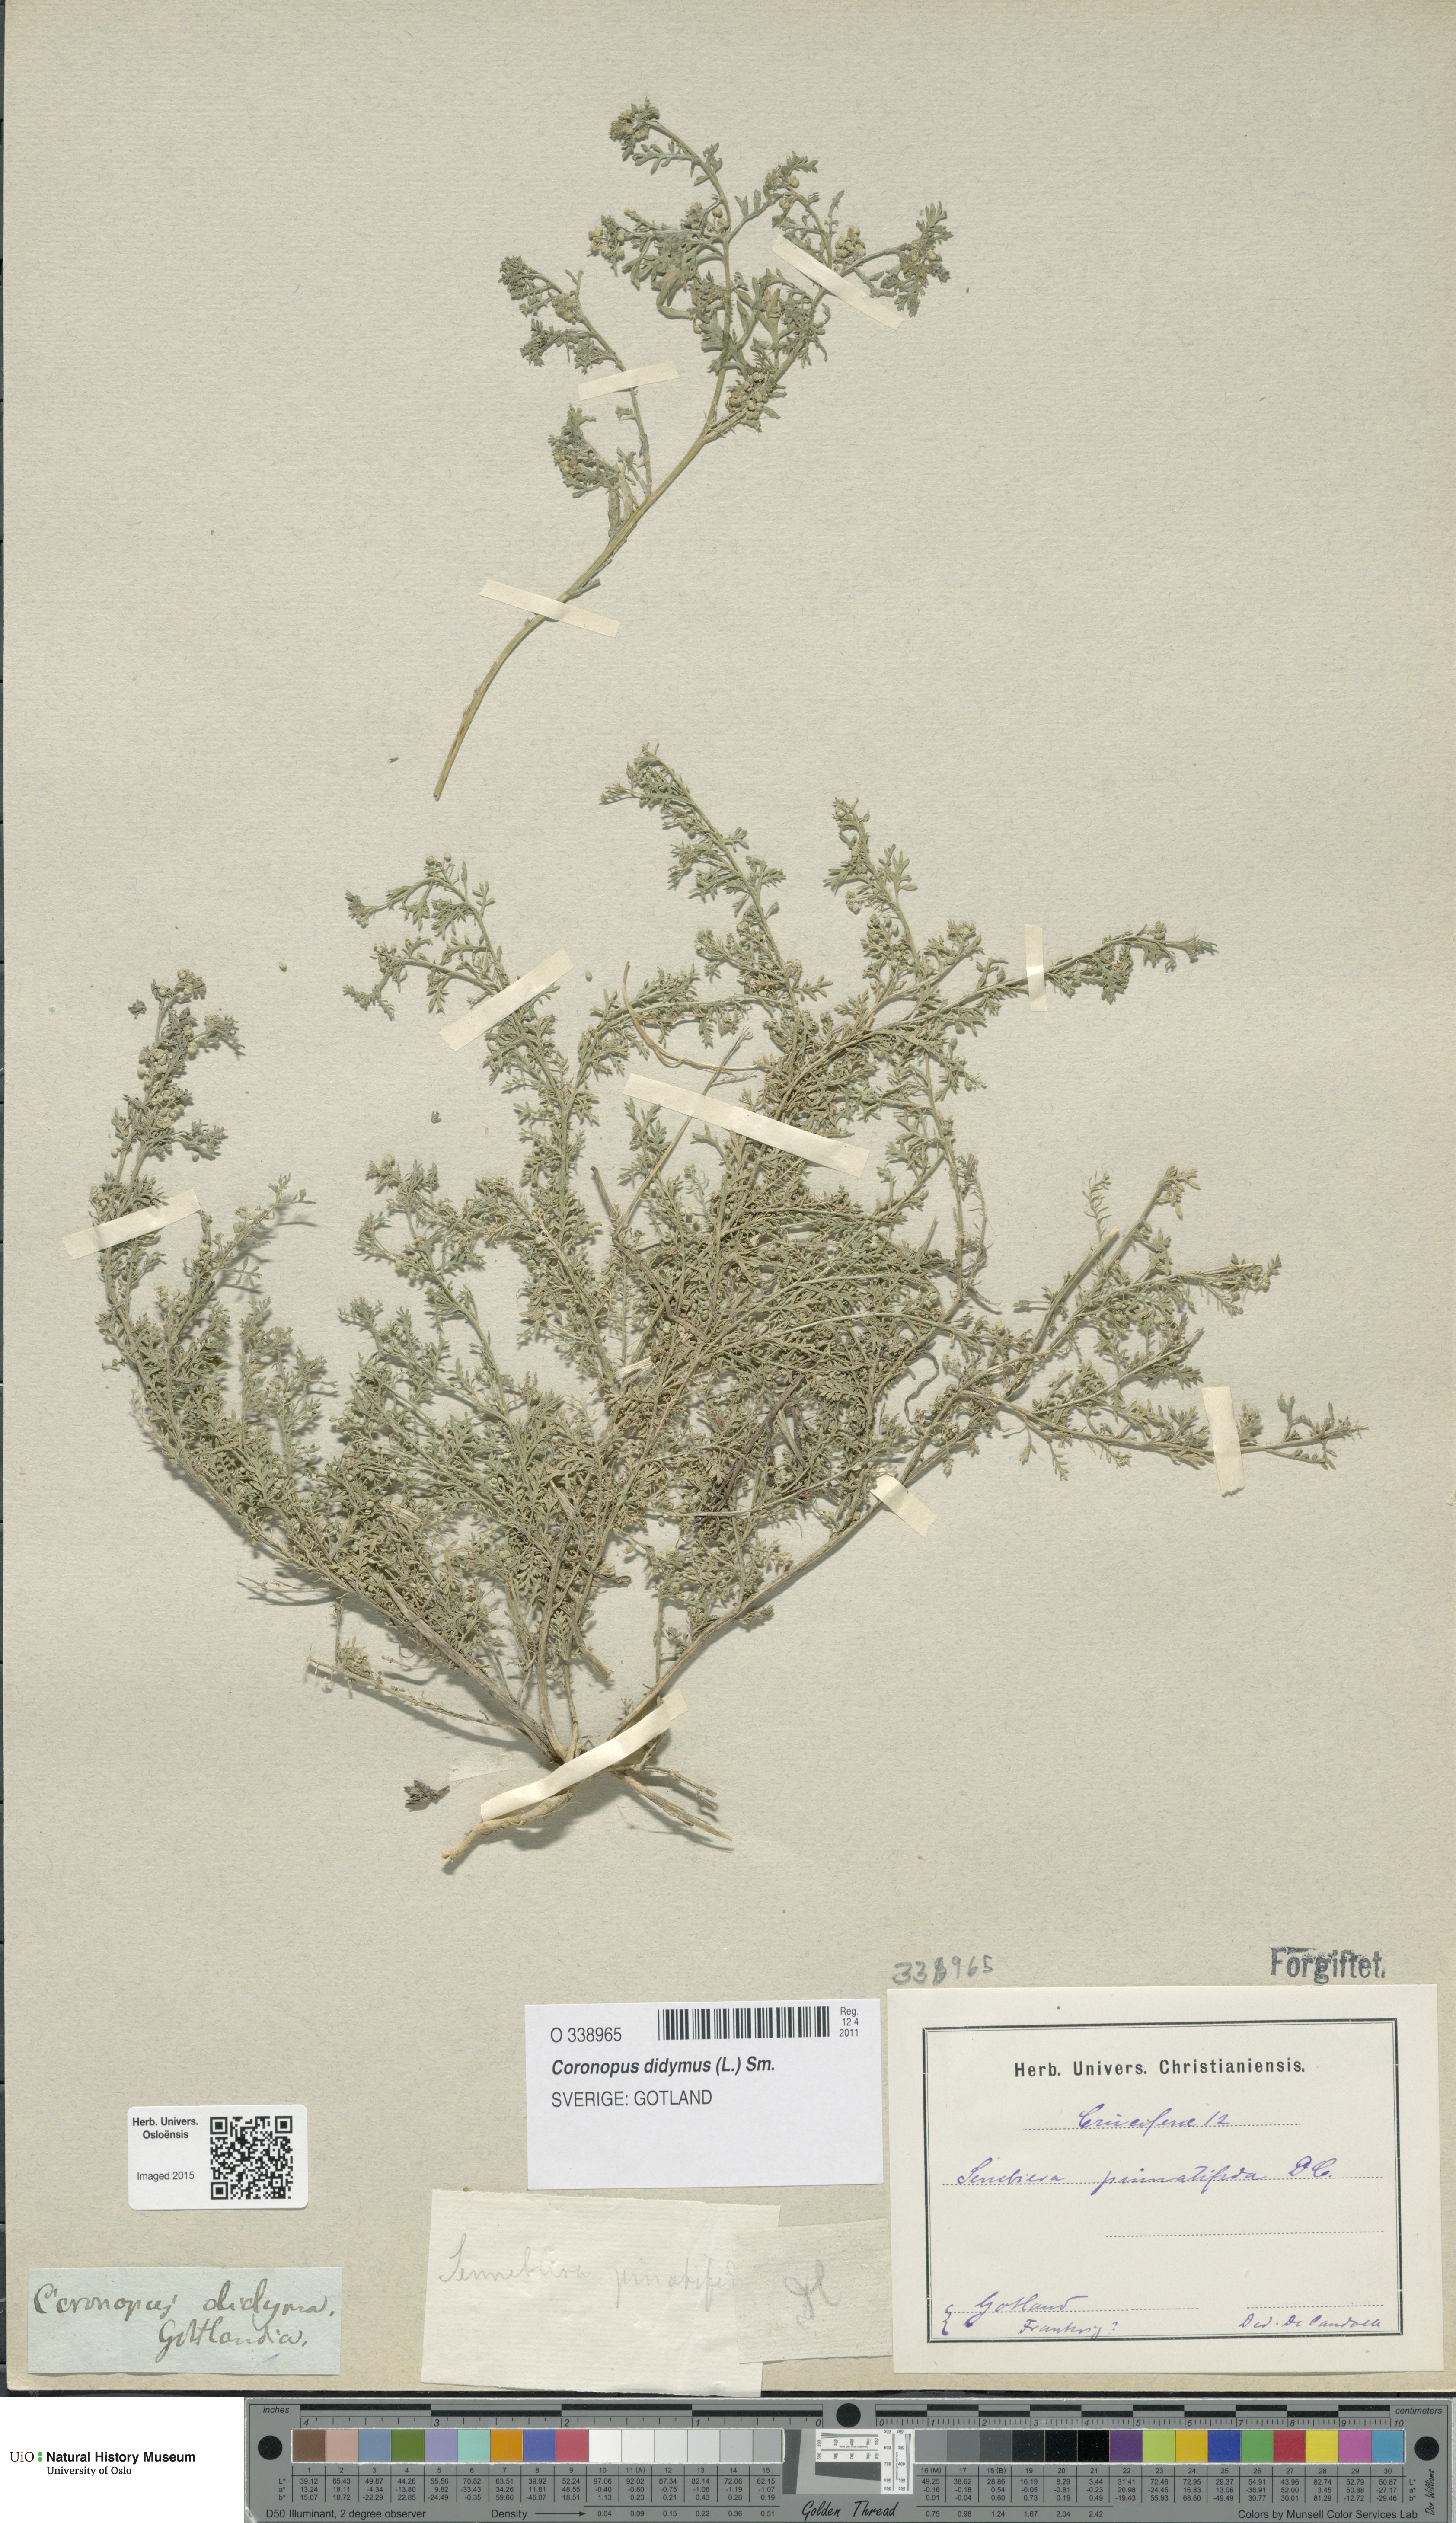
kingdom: Plantae
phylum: Tracheophyta
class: Magnoliopsida
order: Brassicales
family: Brassicaceae
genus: Lepidium
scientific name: Lepidium didymum
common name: Lesser swinecress
